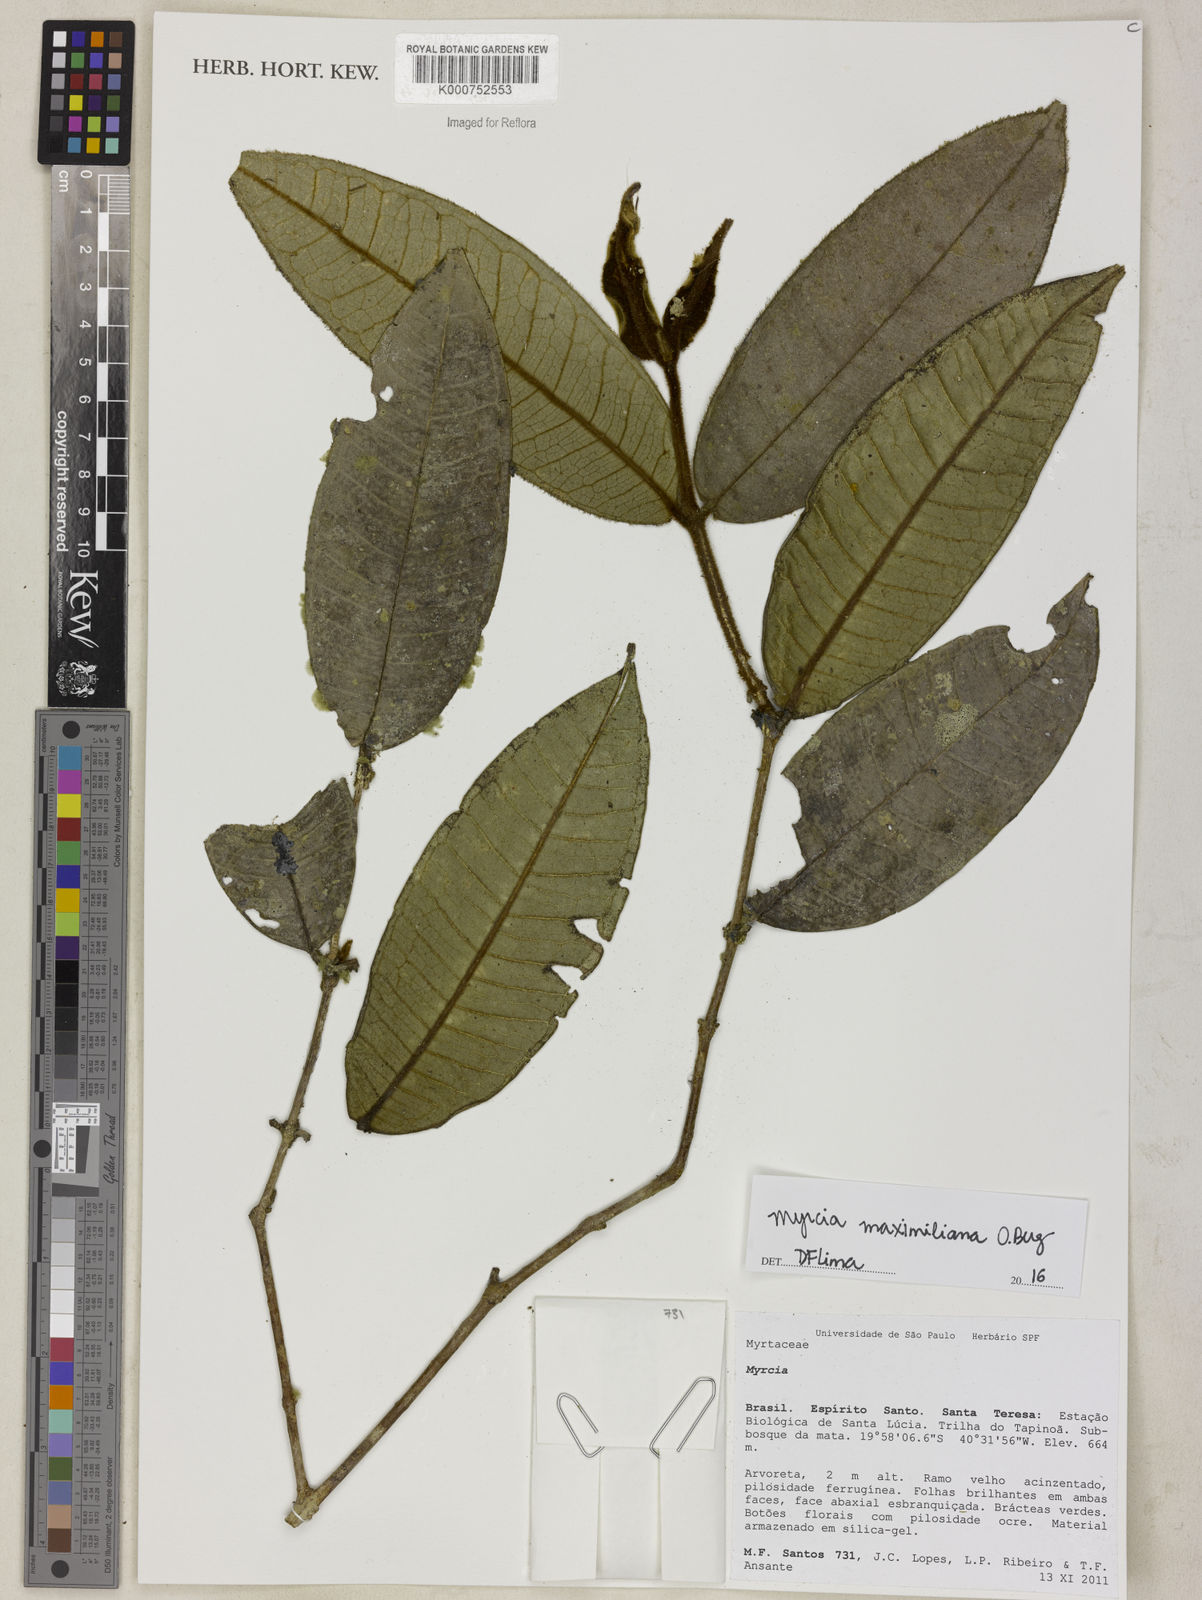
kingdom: Plantae
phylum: Tracheophyta
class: Magnoliopsida
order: Myrtales
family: Myrtaceae
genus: Myrcia
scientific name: Myrcia maximiliana
